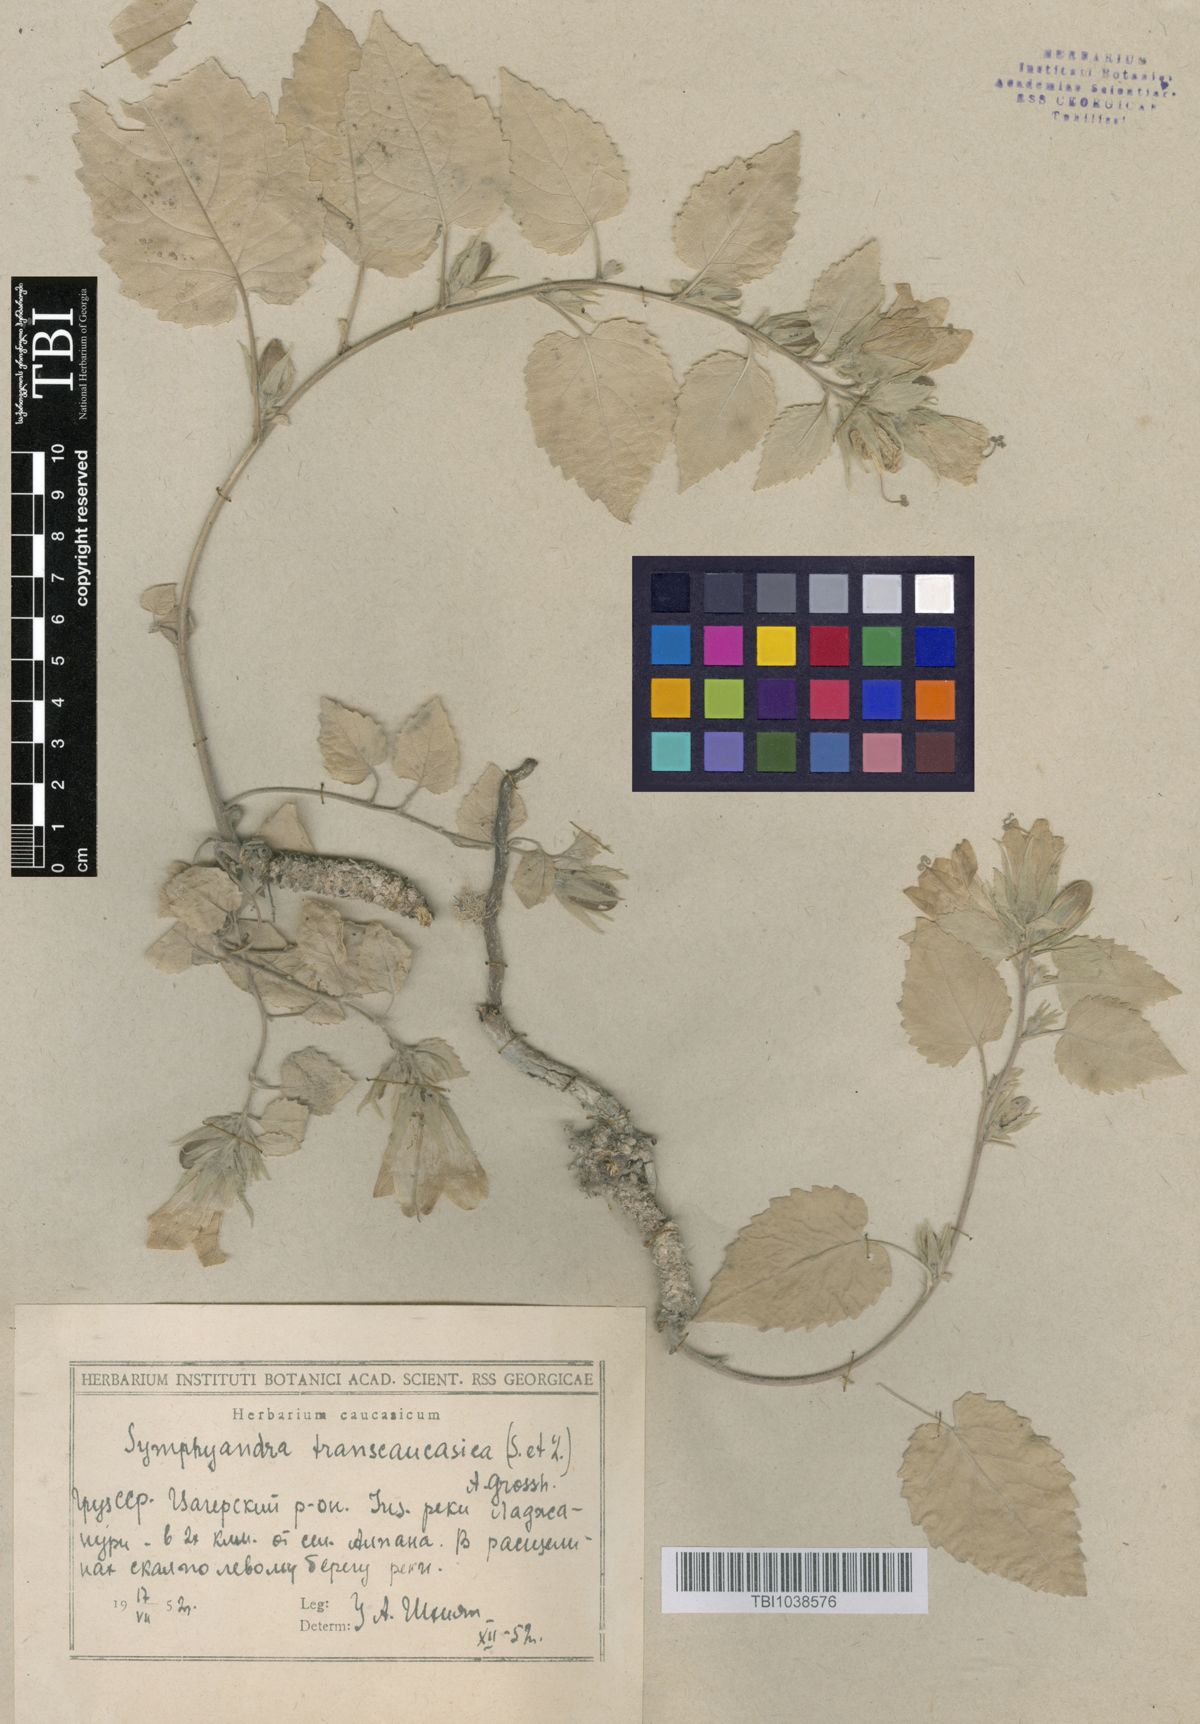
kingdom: Plantae
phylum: Tracheophyta
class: Magnoliopsida
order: Asterales
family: Campanulaceae
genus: Campanula
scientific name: Campanula pendula
